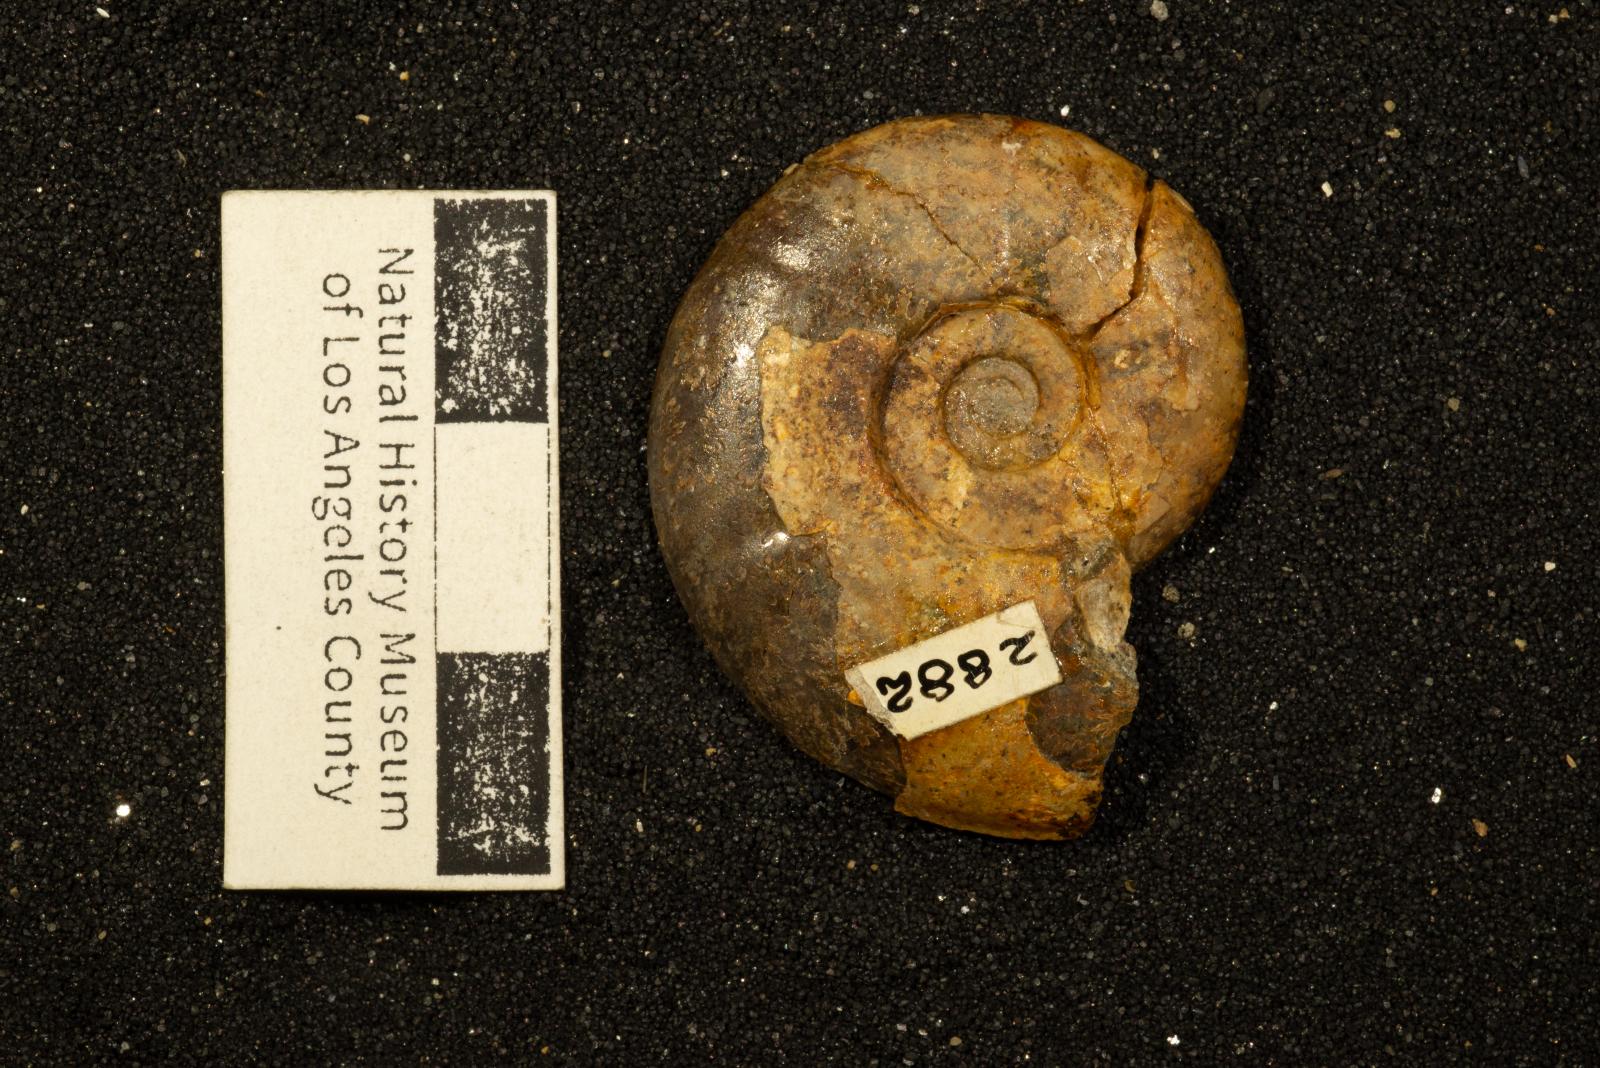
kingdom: Animalia
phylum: Mollusca
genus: Gardeniceras
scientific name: Gardeniceras Hauericeras angustum
